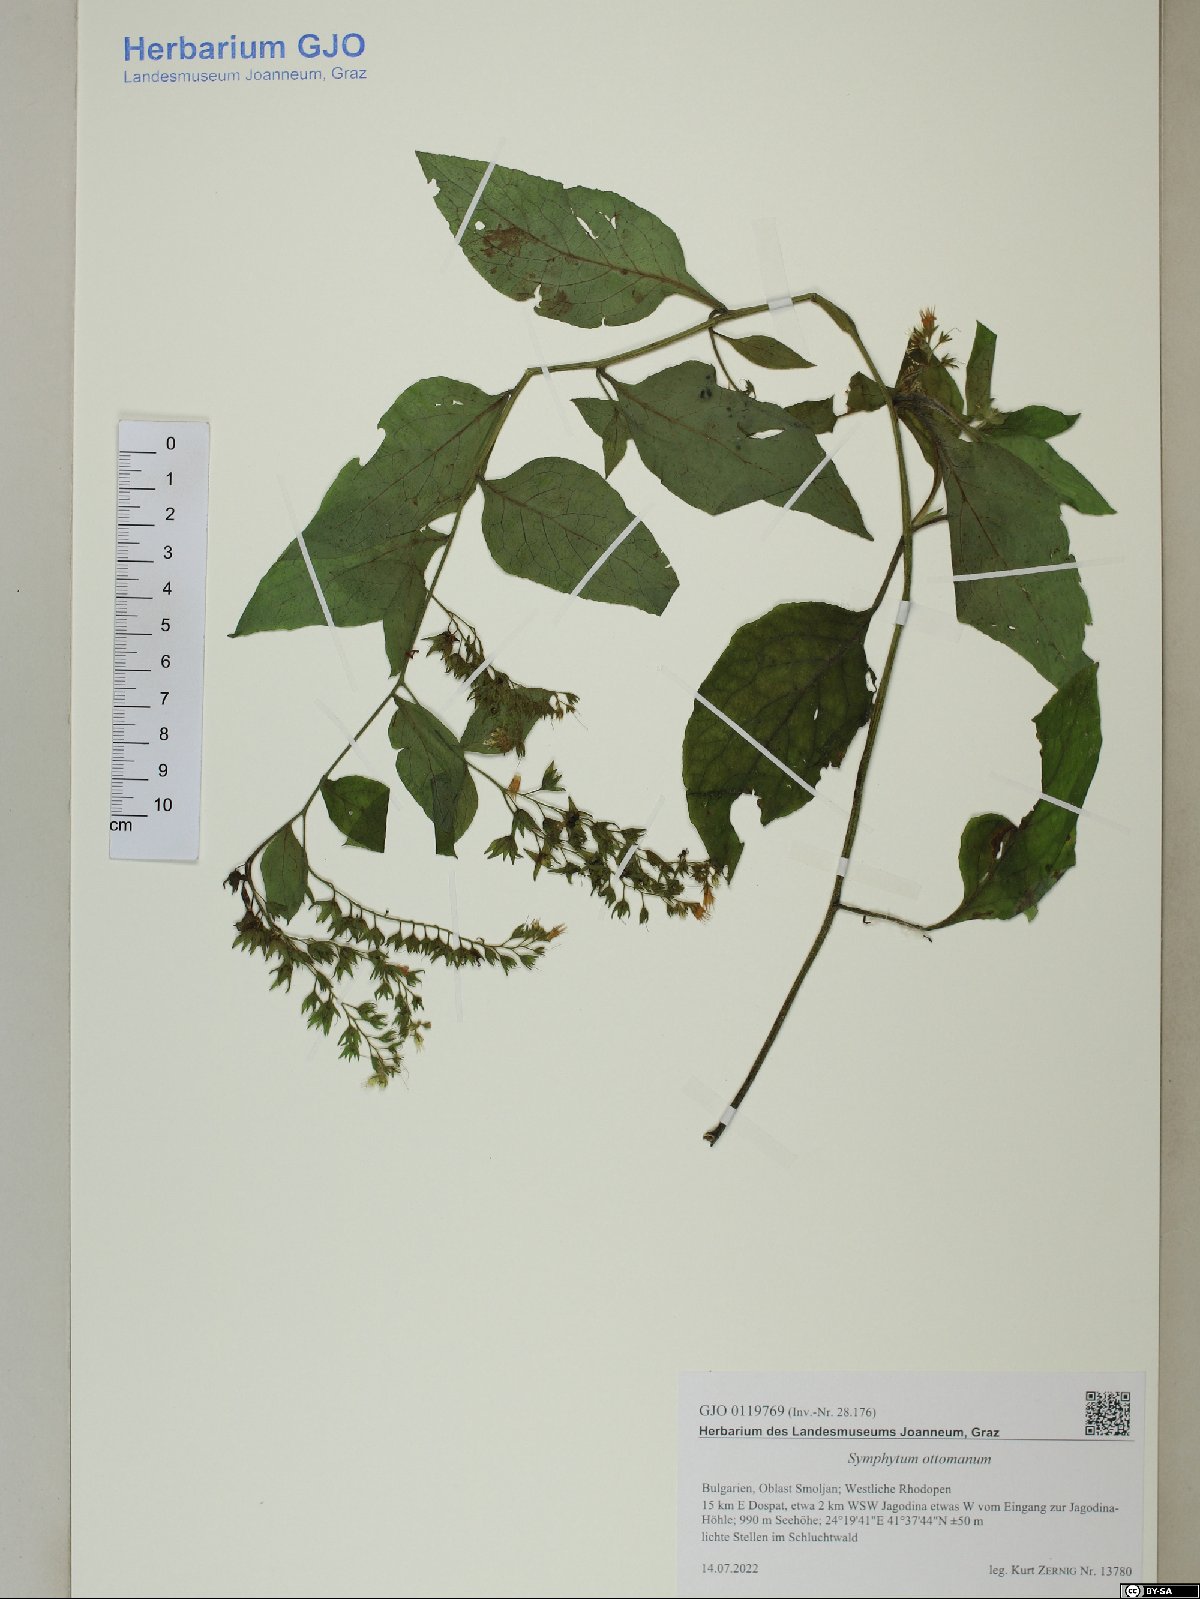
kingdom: Plantae
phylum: Tracheophyta
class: Magnoliopsida
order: Boraginales
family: Boraginaceae
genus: Symphytum
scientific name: Symphytum ottomanum
